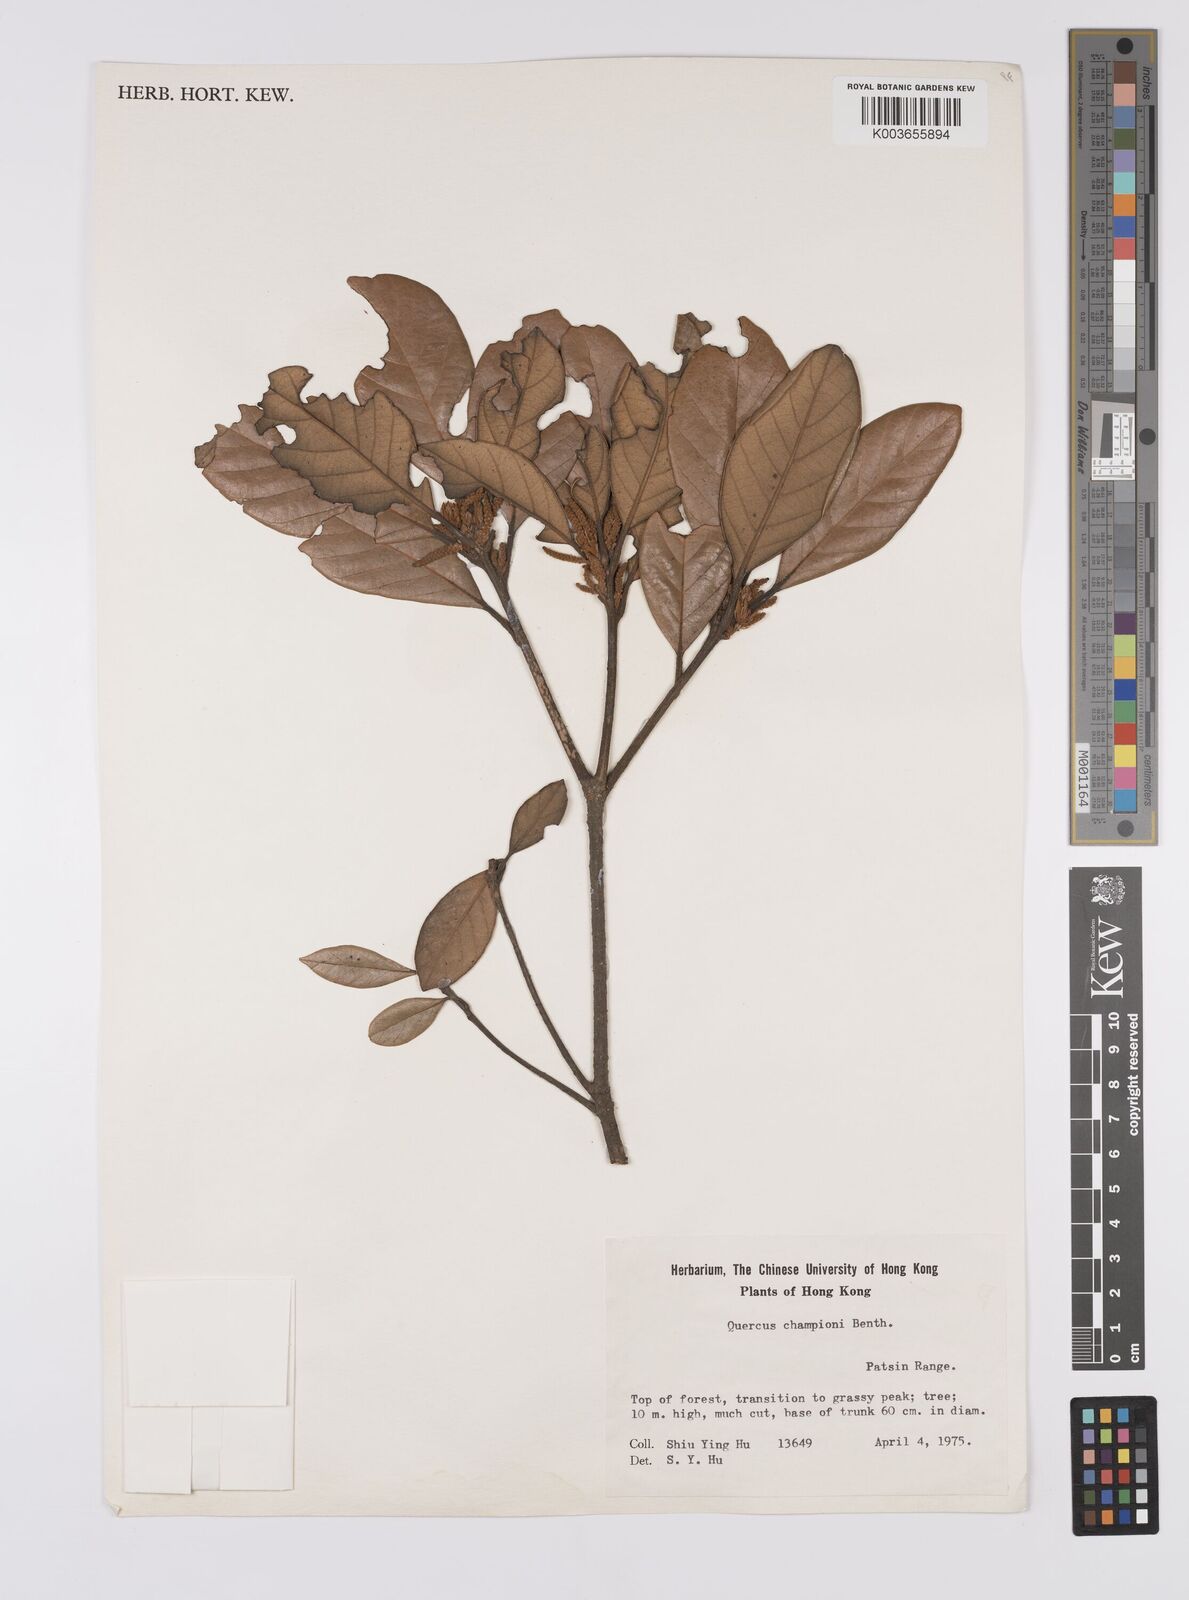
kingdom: Plantae
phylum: Tracheophyta
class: Magnoliopsida
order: Fagales
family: Fagaceae
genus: Quercus
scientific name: Quercus championii
